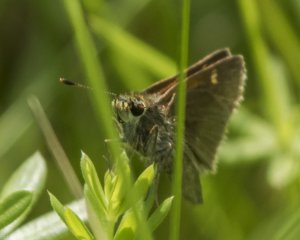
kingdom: Animalia
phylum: Arthropoda
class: Insecta
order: Lepidoptera
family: Hesperiidae
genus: Mastor
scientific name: Mastor vialis
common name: Common Roadside-Skipper
